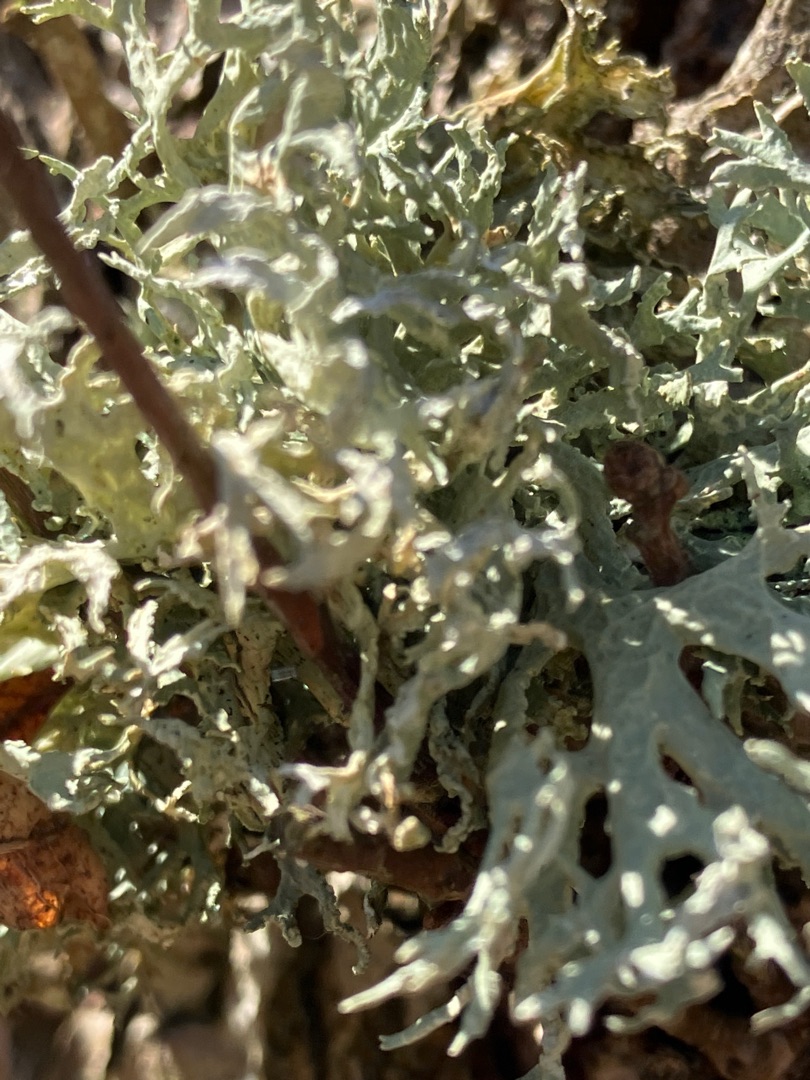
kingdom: Fungi
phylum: Ascomycota
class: Lecanoromycetes
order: Lecanorales
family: Parmeliaceae
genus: Evernia
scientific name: Evernia prunastri
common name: Almindelig slåenlav
